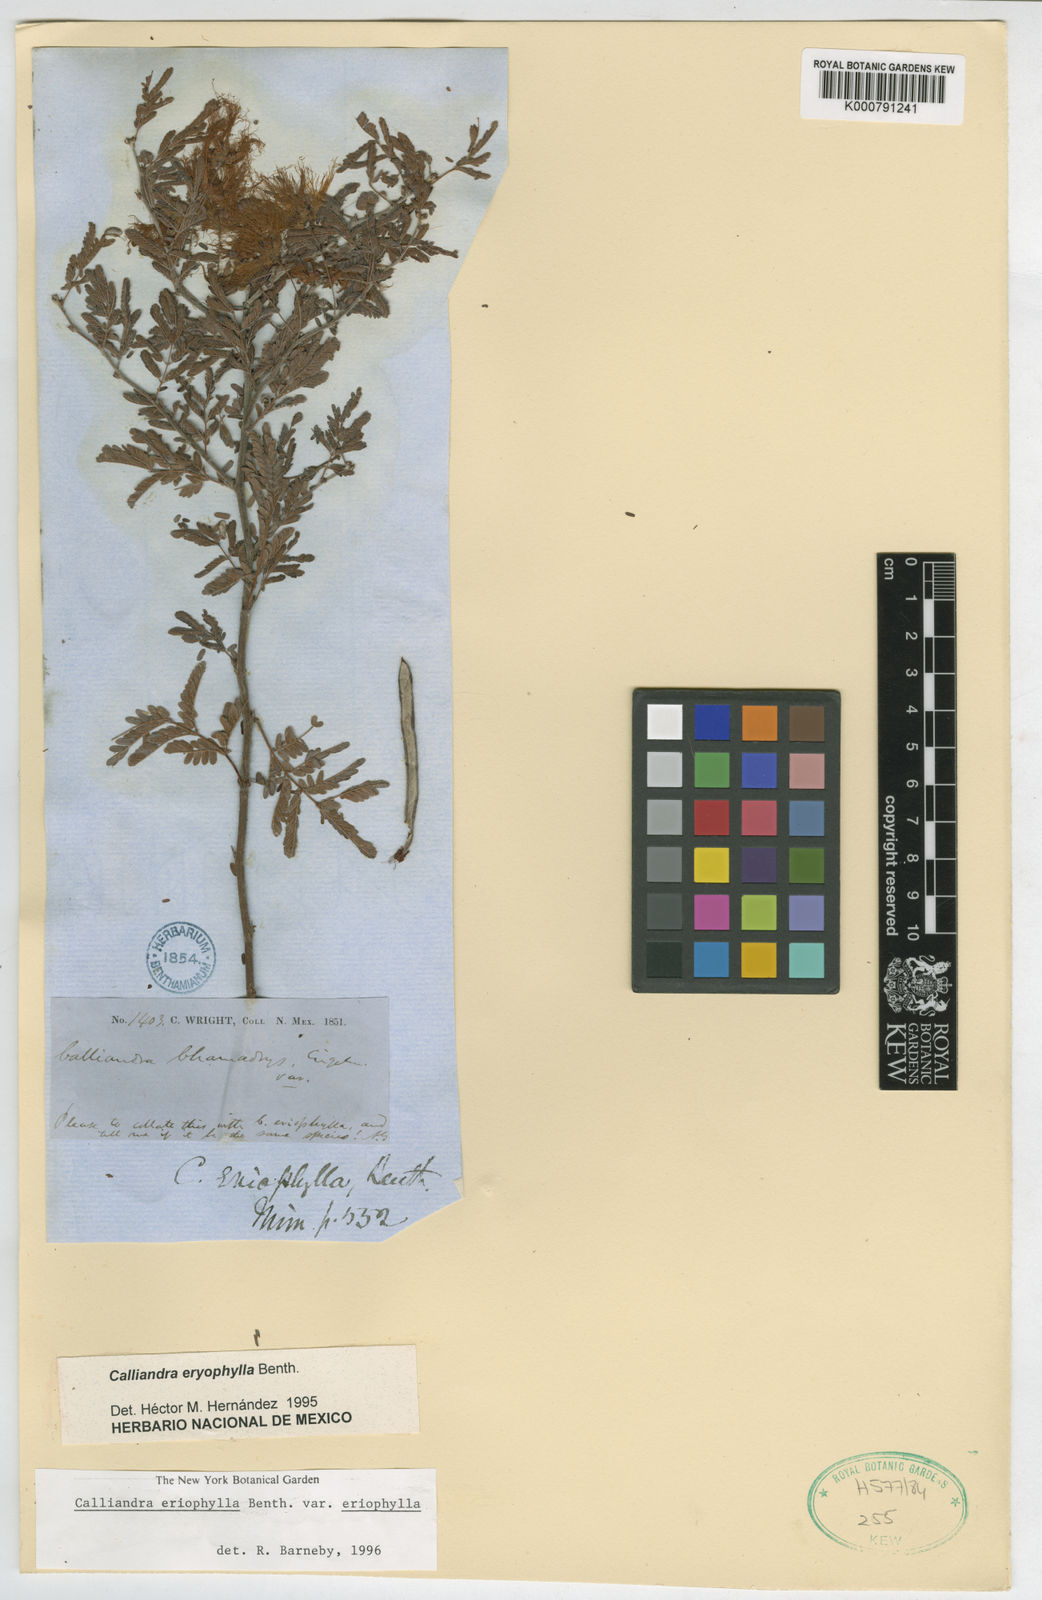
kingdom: Plantae
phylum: Tracheophyta
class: Magnoliopsida
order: Fabales
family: Fabaceae
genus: Calliandra
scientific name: Calliandra eriophylla
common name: Fairy-duster
